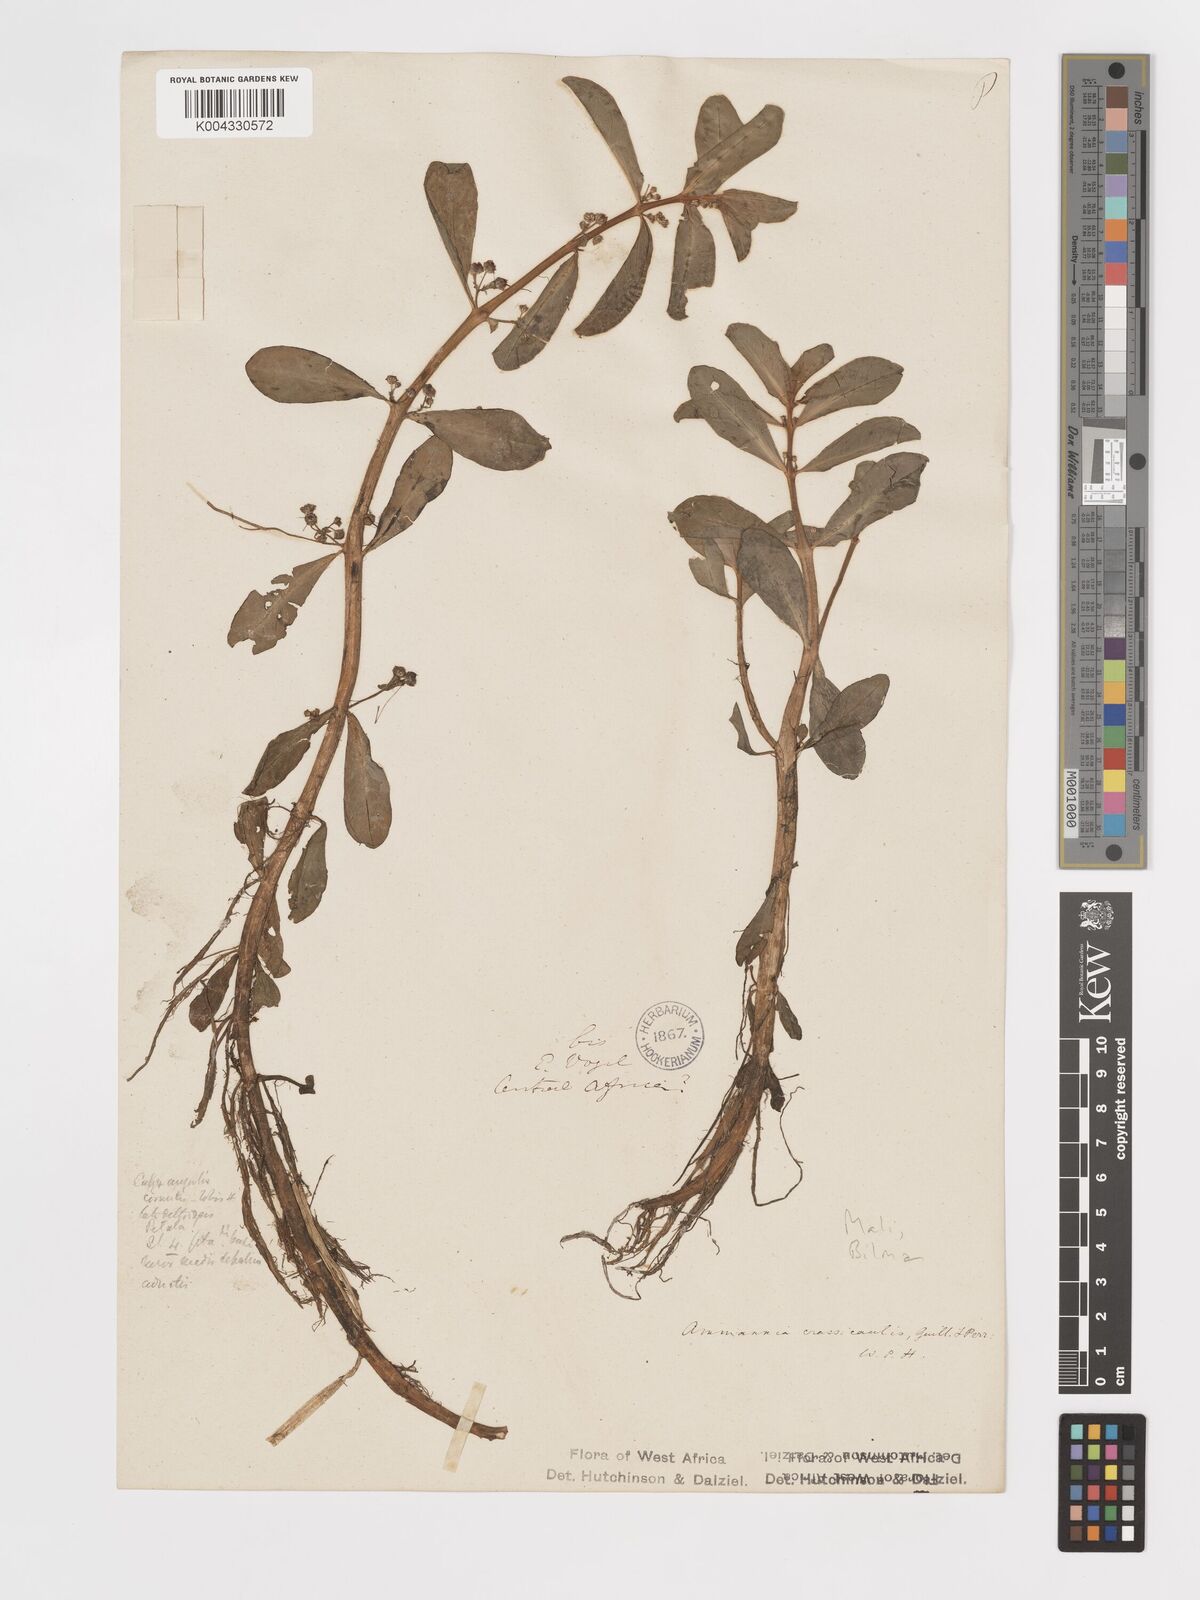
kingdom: Plantae
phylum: Tracheophyta
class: Magnoliopsida
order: Myrtales
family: Lythraceae
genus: Ammannia
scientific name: Ammannia crassicaulis
